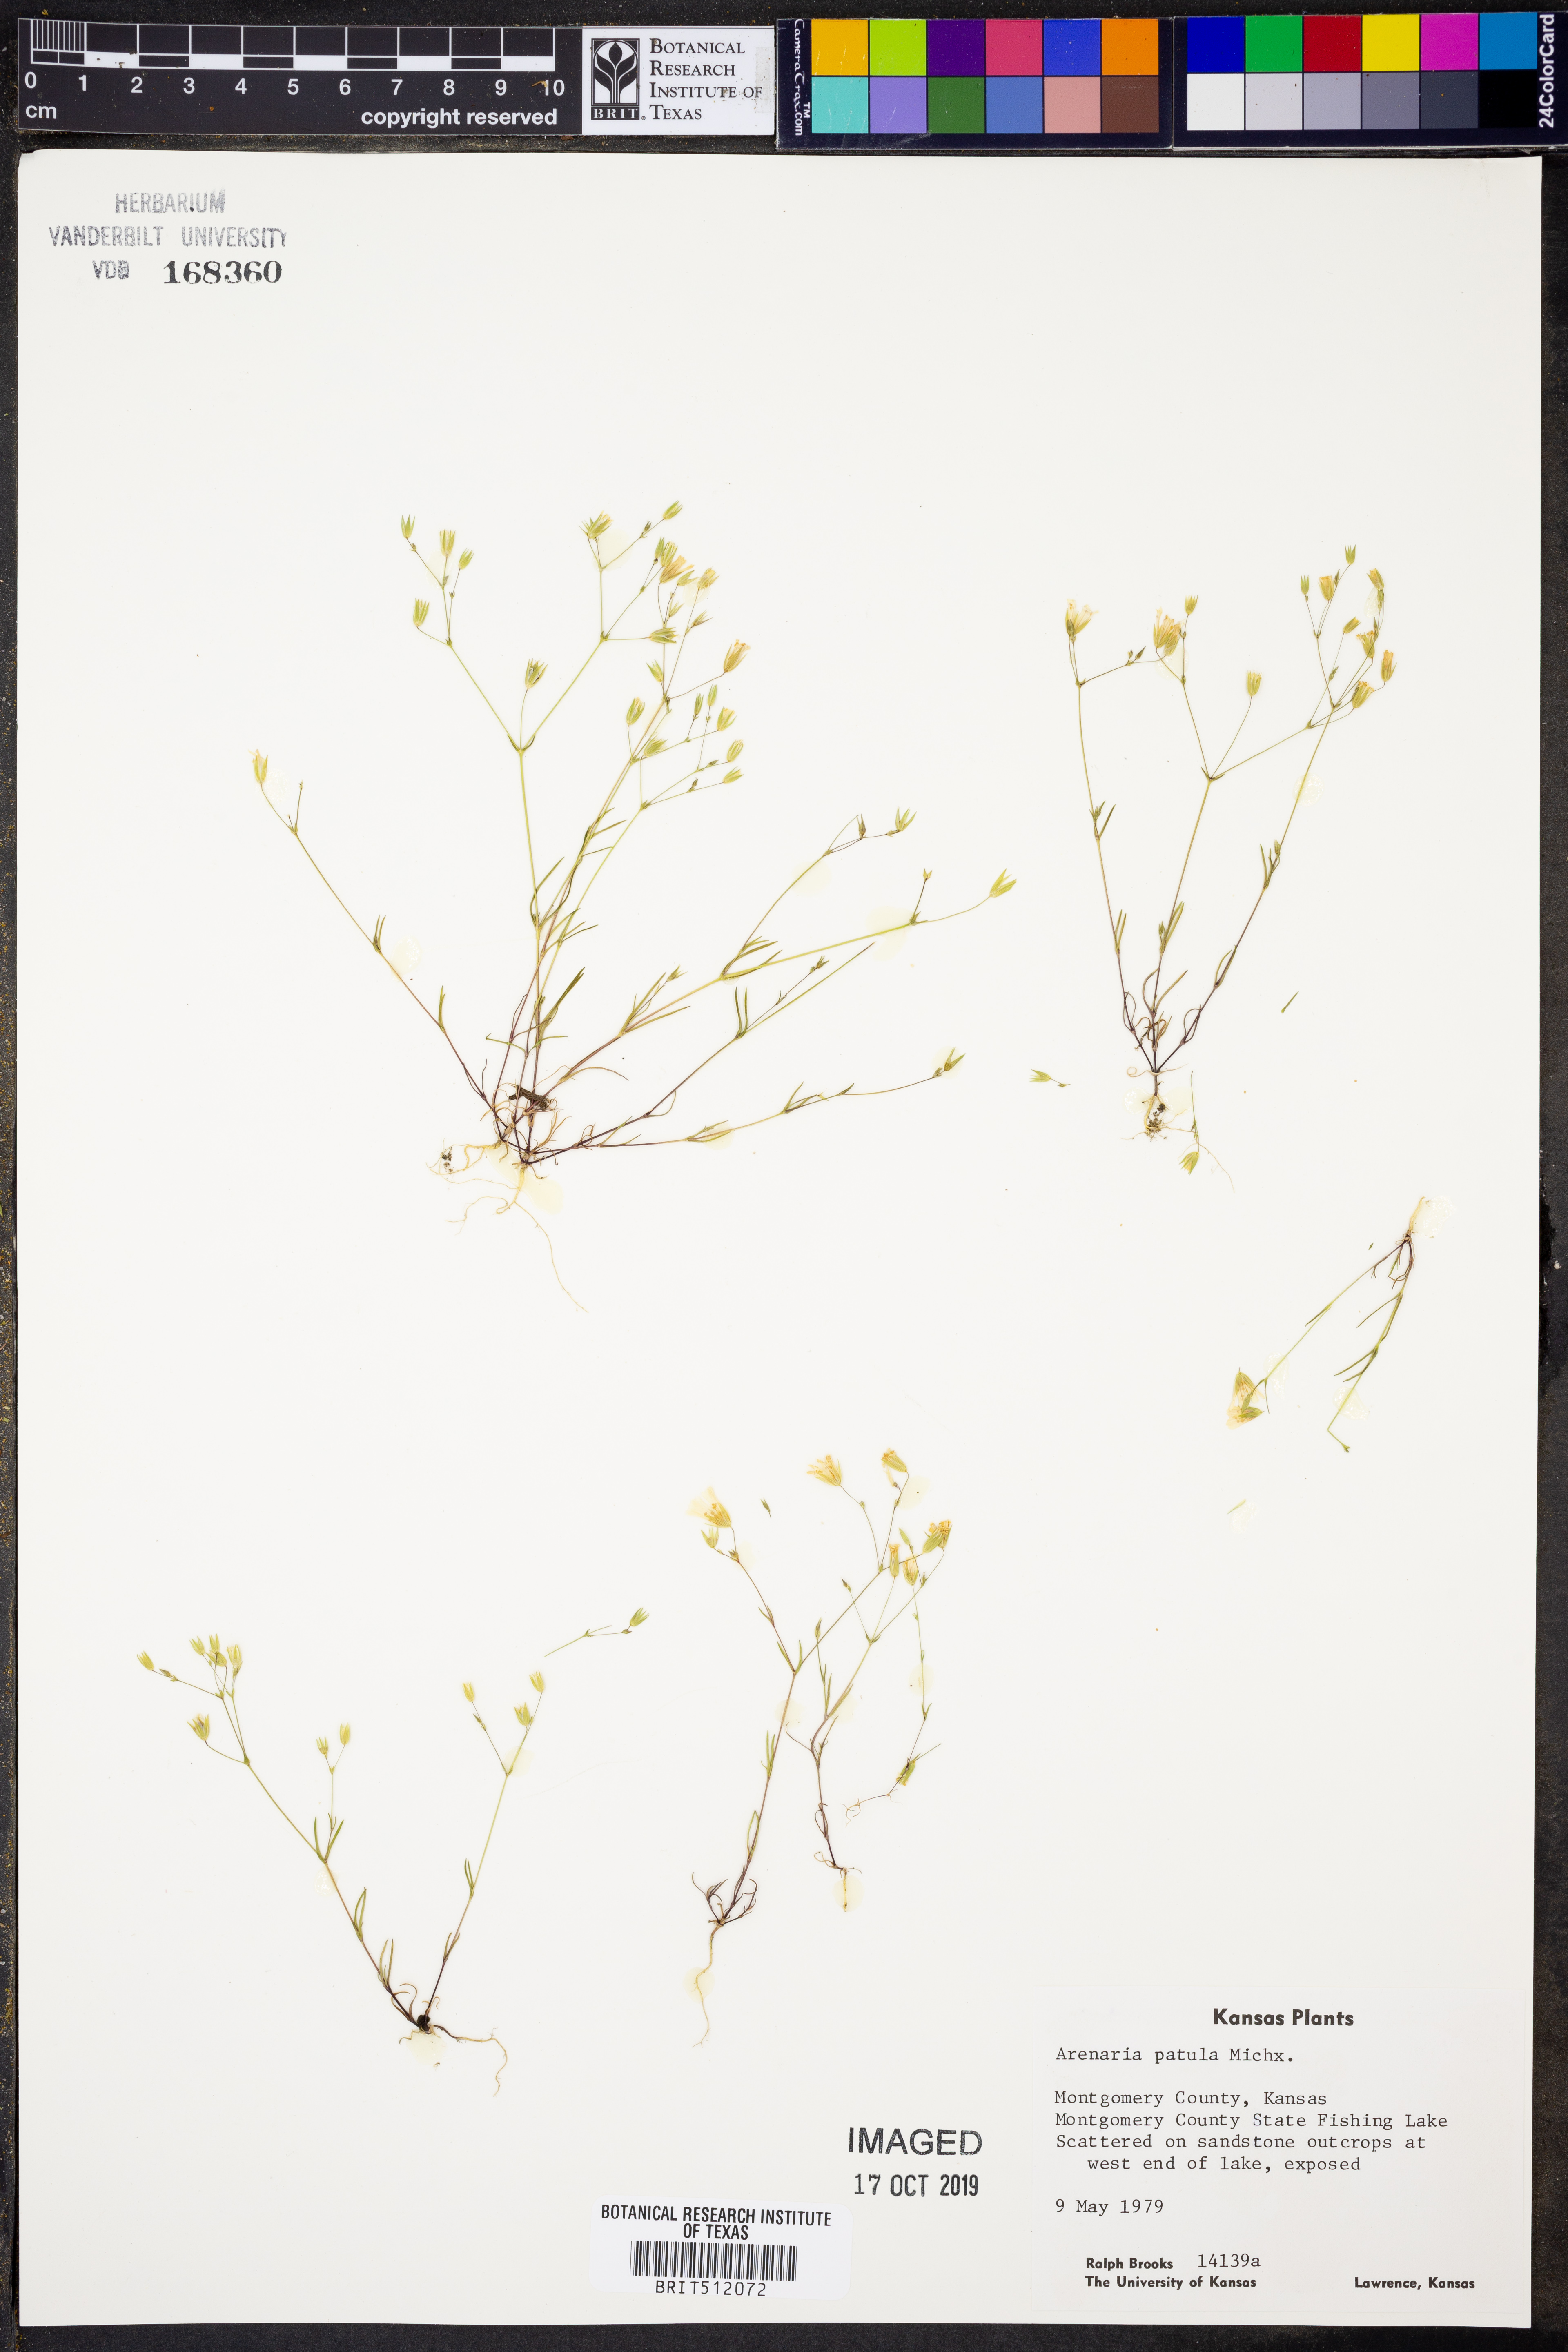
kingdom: Plantae
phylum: Tracheophyta
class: Magnoliopsida
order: Caryophyllales
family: Caryophyllaceae
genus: Mononeuria
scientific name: Mononeuria patula
